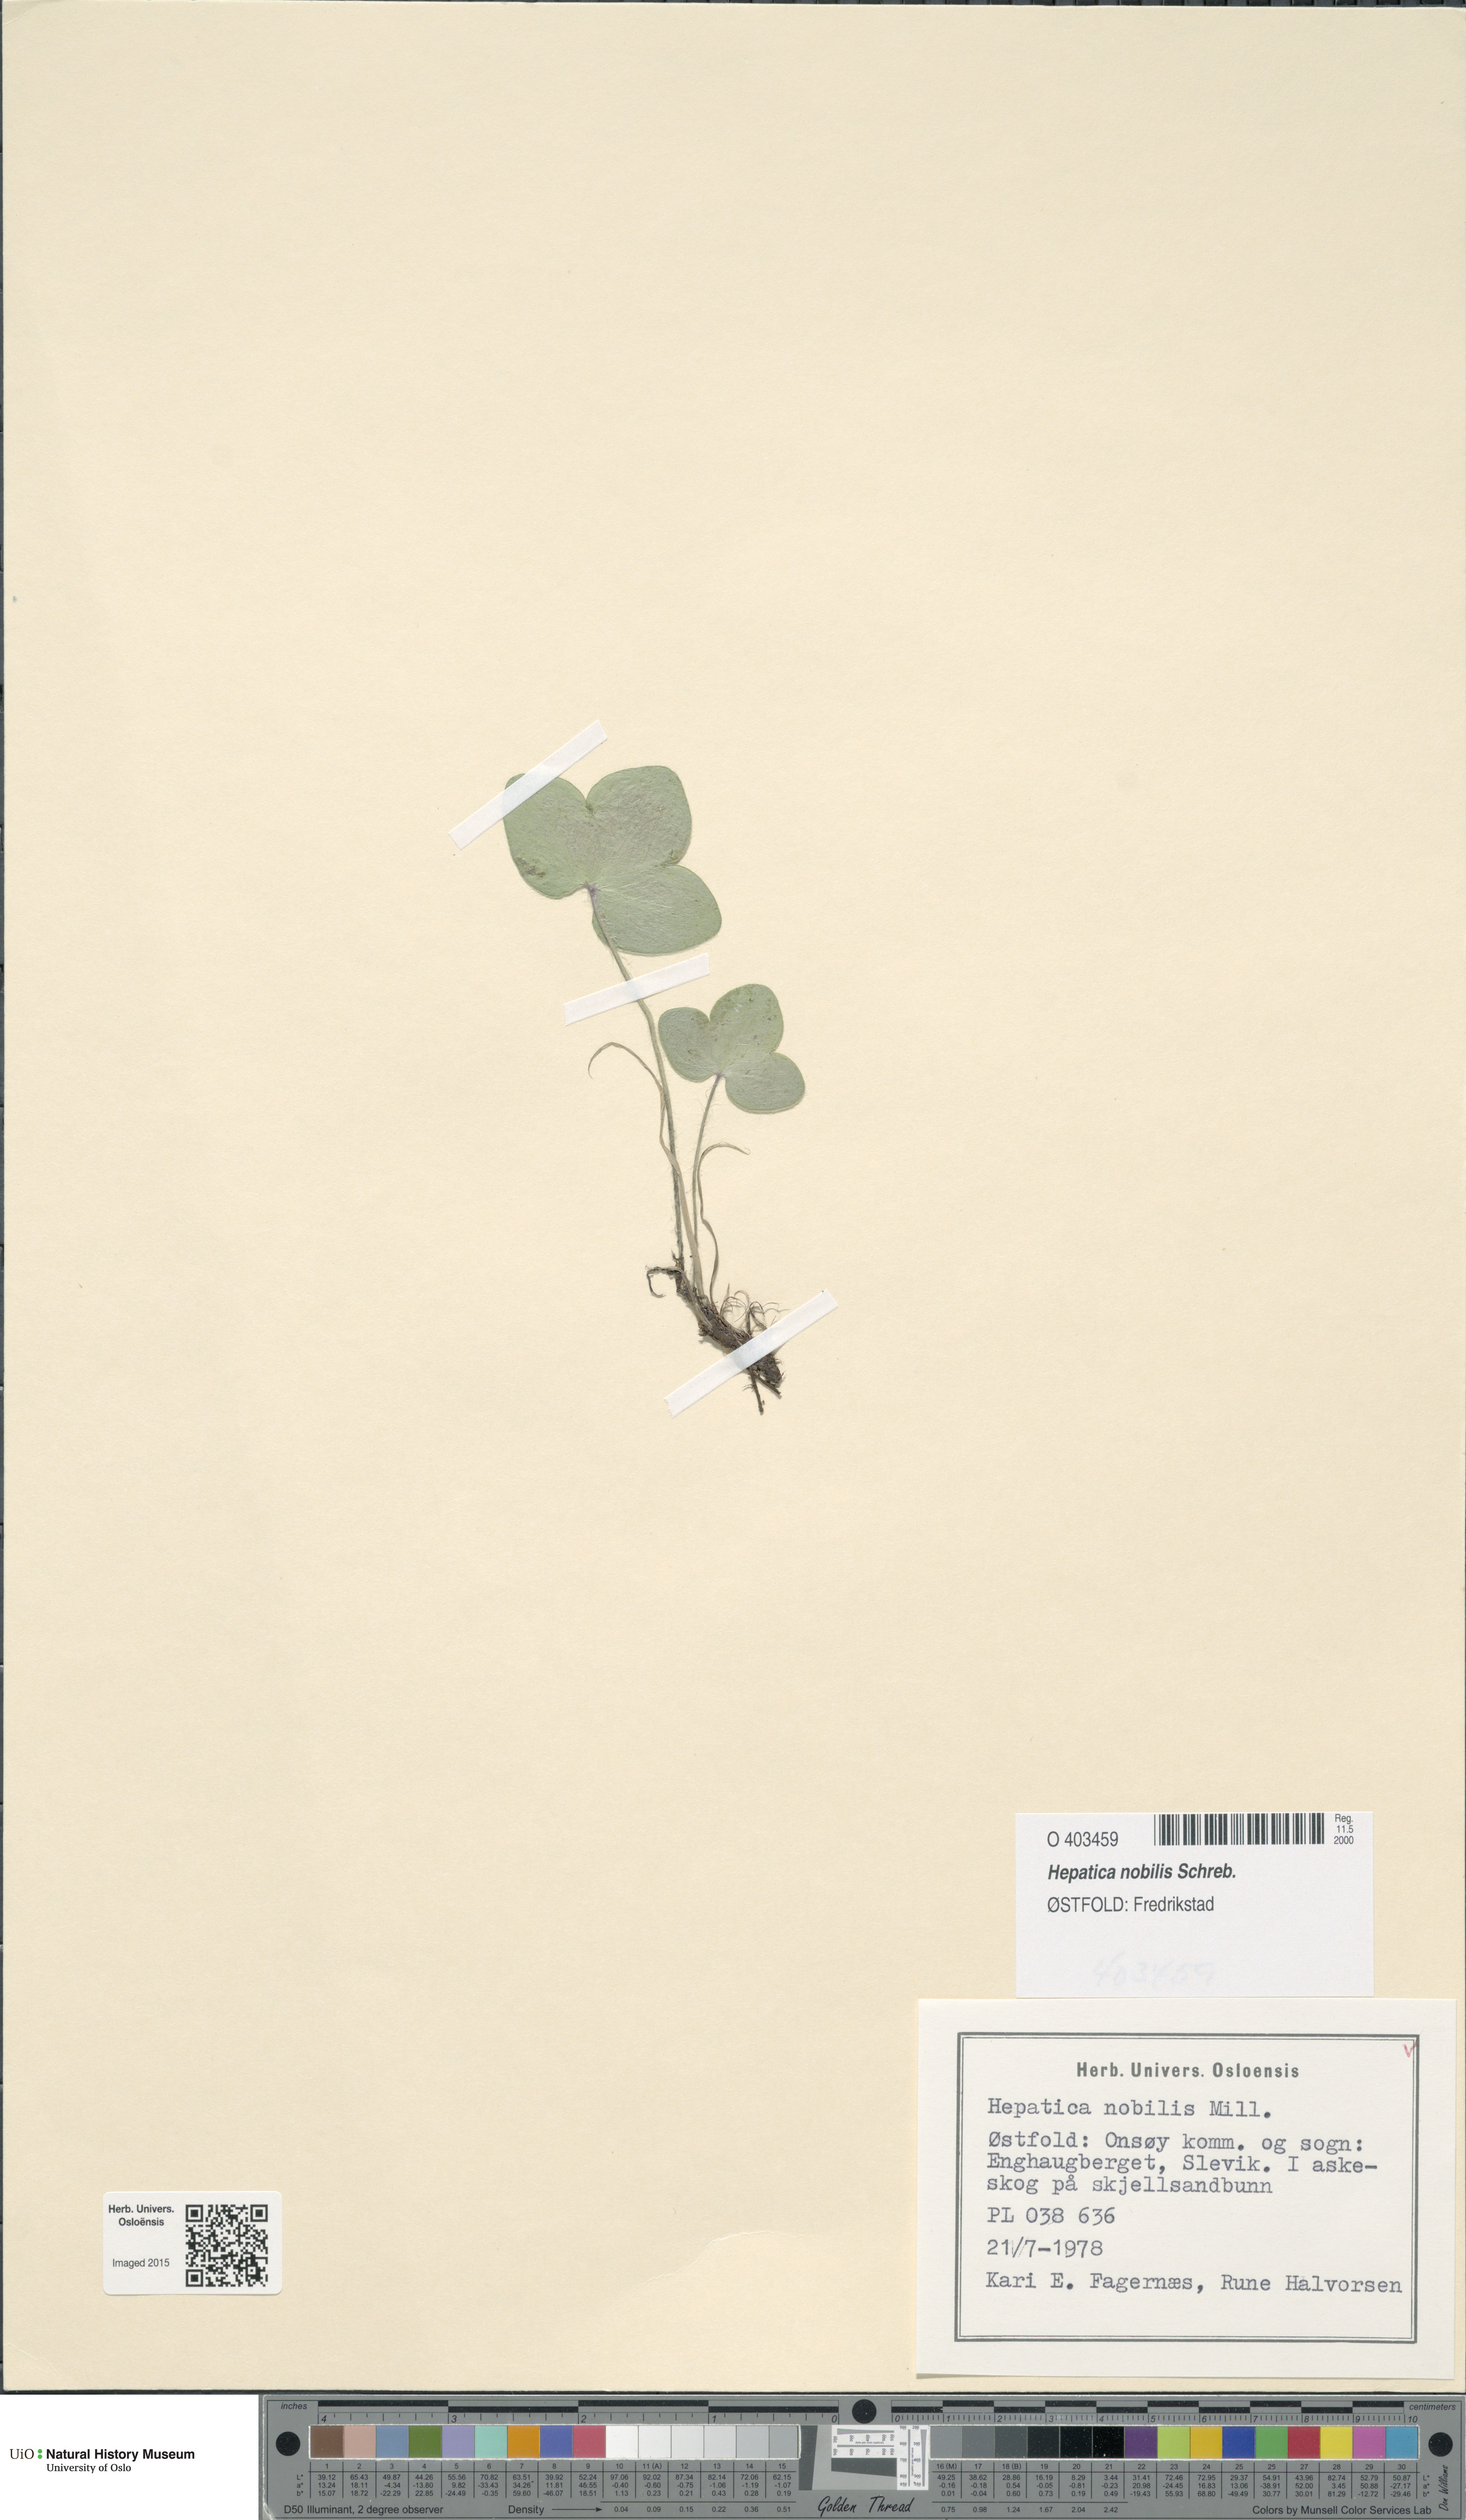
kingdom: Plantae
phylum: Tracheophyta
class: Magnoliopsida
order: Ranunculales
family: Ranunculaceae
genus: Hepatica
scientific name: Hepatica nobilis
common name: Liverleaf
